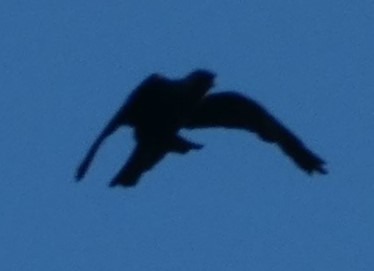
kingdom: Animalia
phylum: Chordata
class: Aves
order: Passeriformes
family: Corvidae
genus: Coloeus
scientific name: Coloeus monedula
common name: Allike
